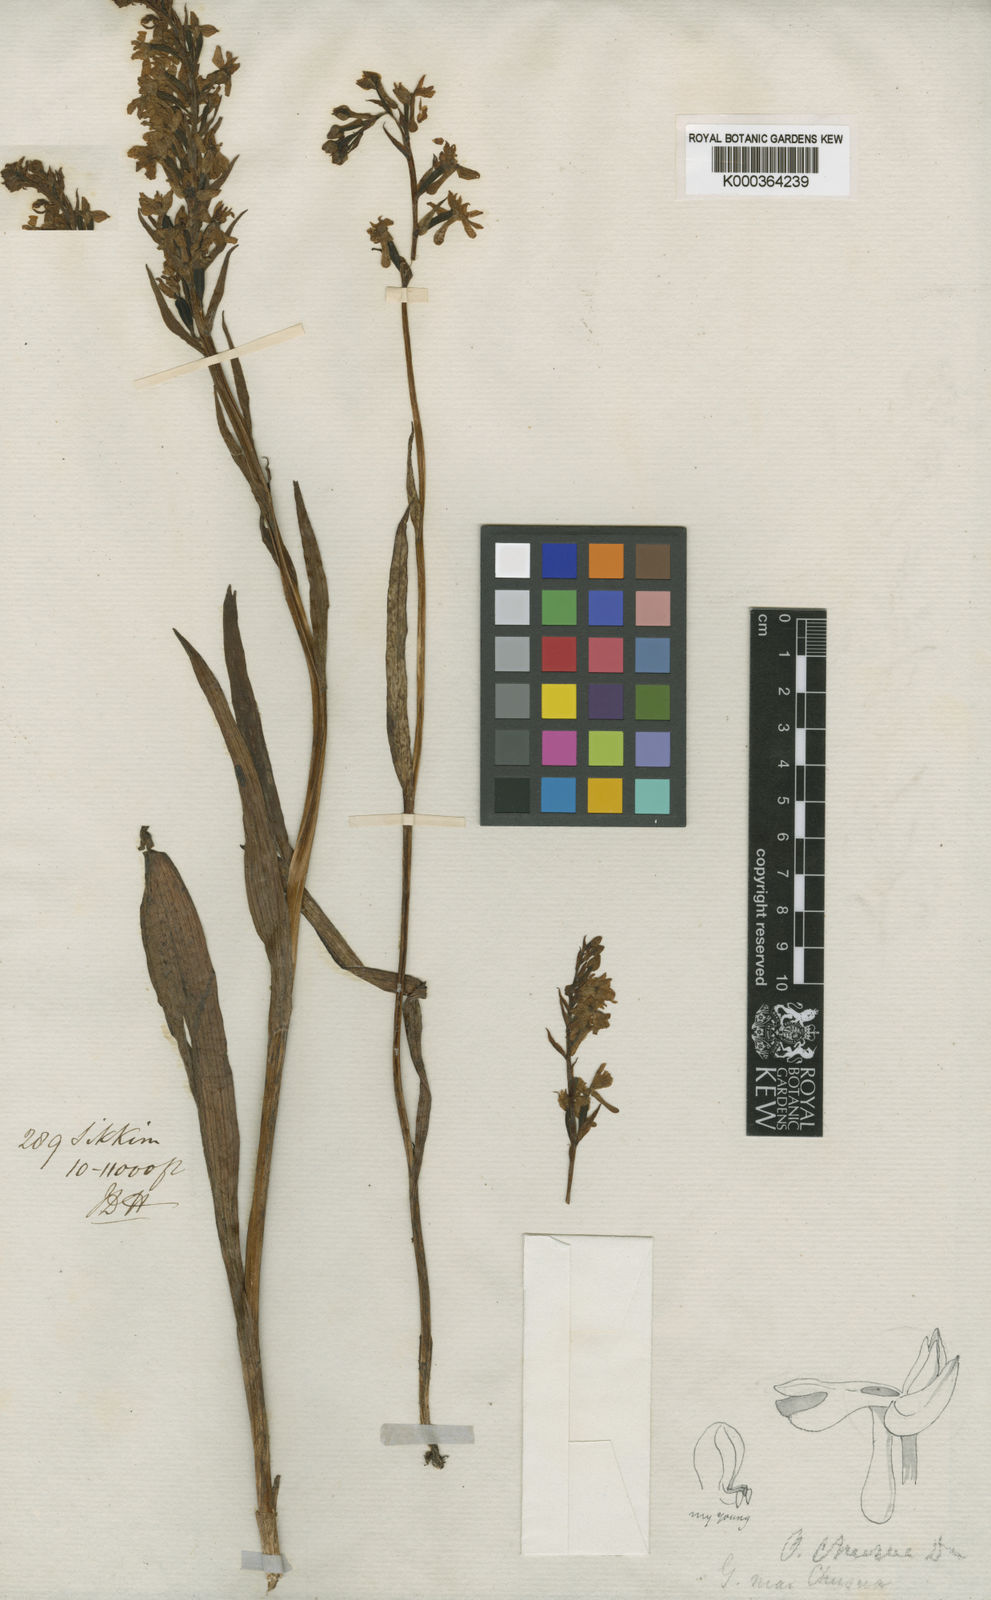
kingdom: Plantae
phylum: Tracheophyta
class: Liliopsida
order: Asparagales
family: Orchidaceae
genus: Hemipilia
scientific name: Hemipilia
